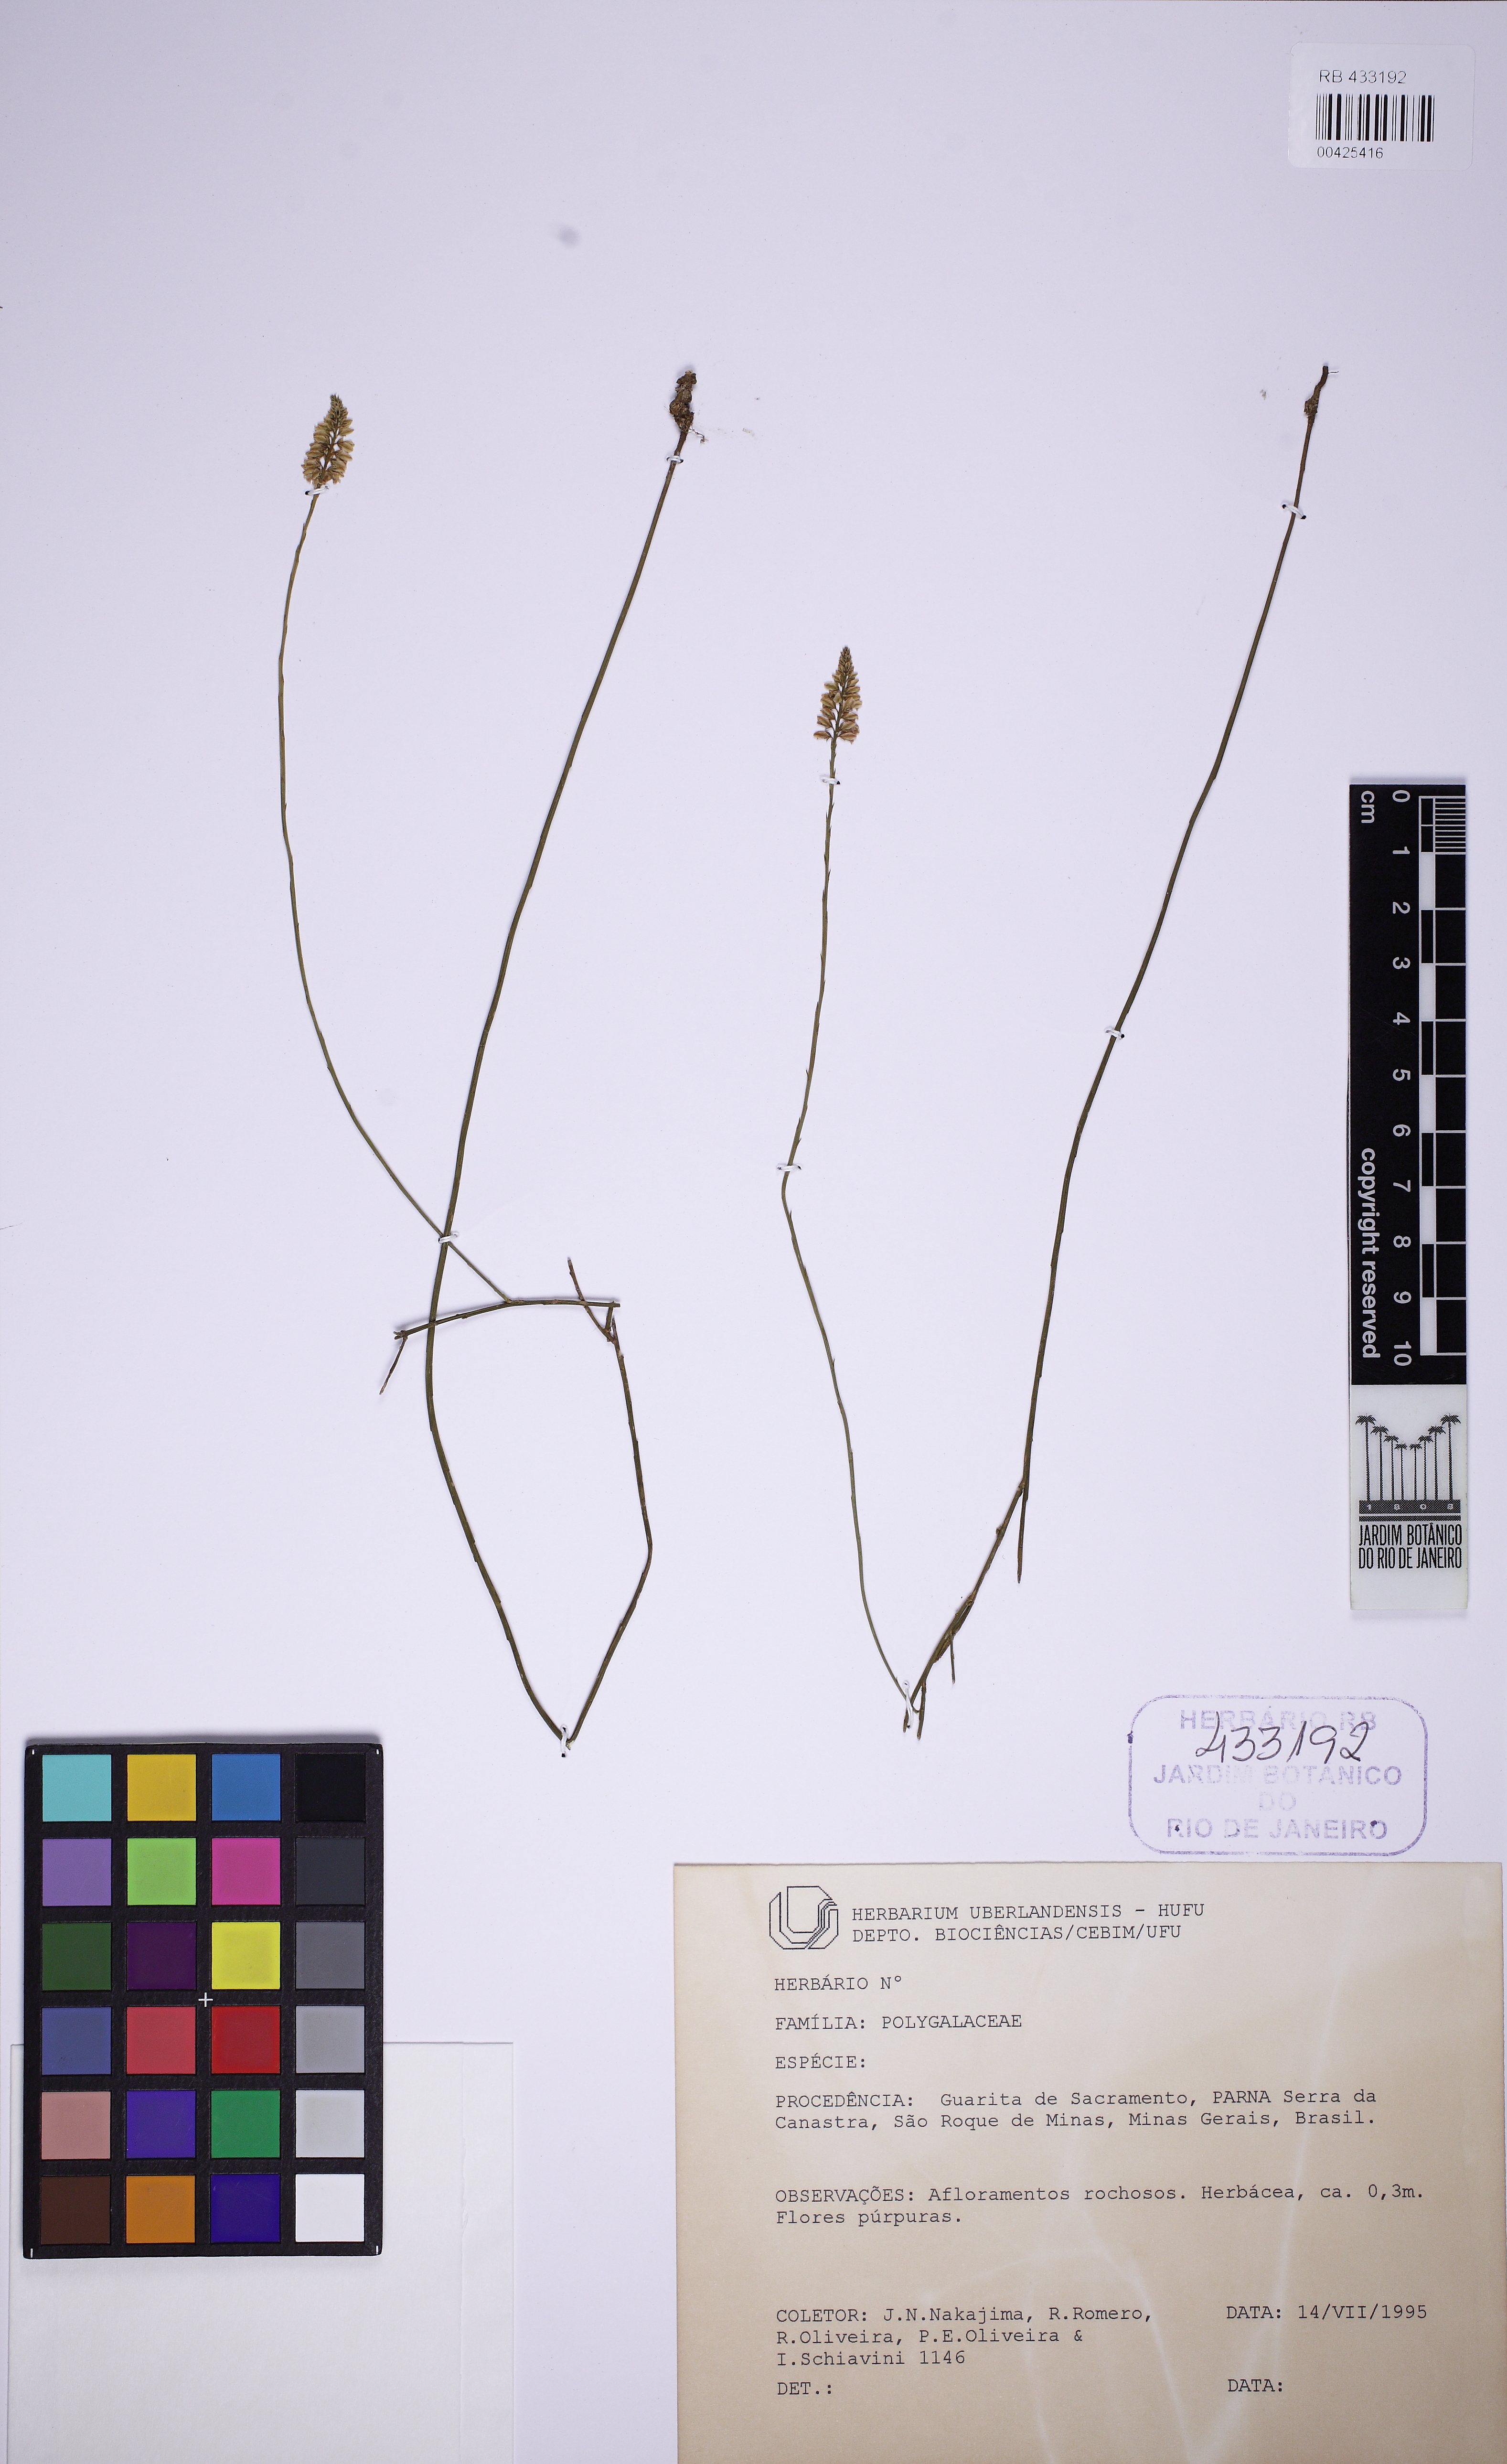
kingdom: Plantae
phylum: Tracheophyta
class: Magnoliopsida
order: Fabales
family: Polygalaceae
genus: Polygala
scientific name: Polygala nudicaulis
